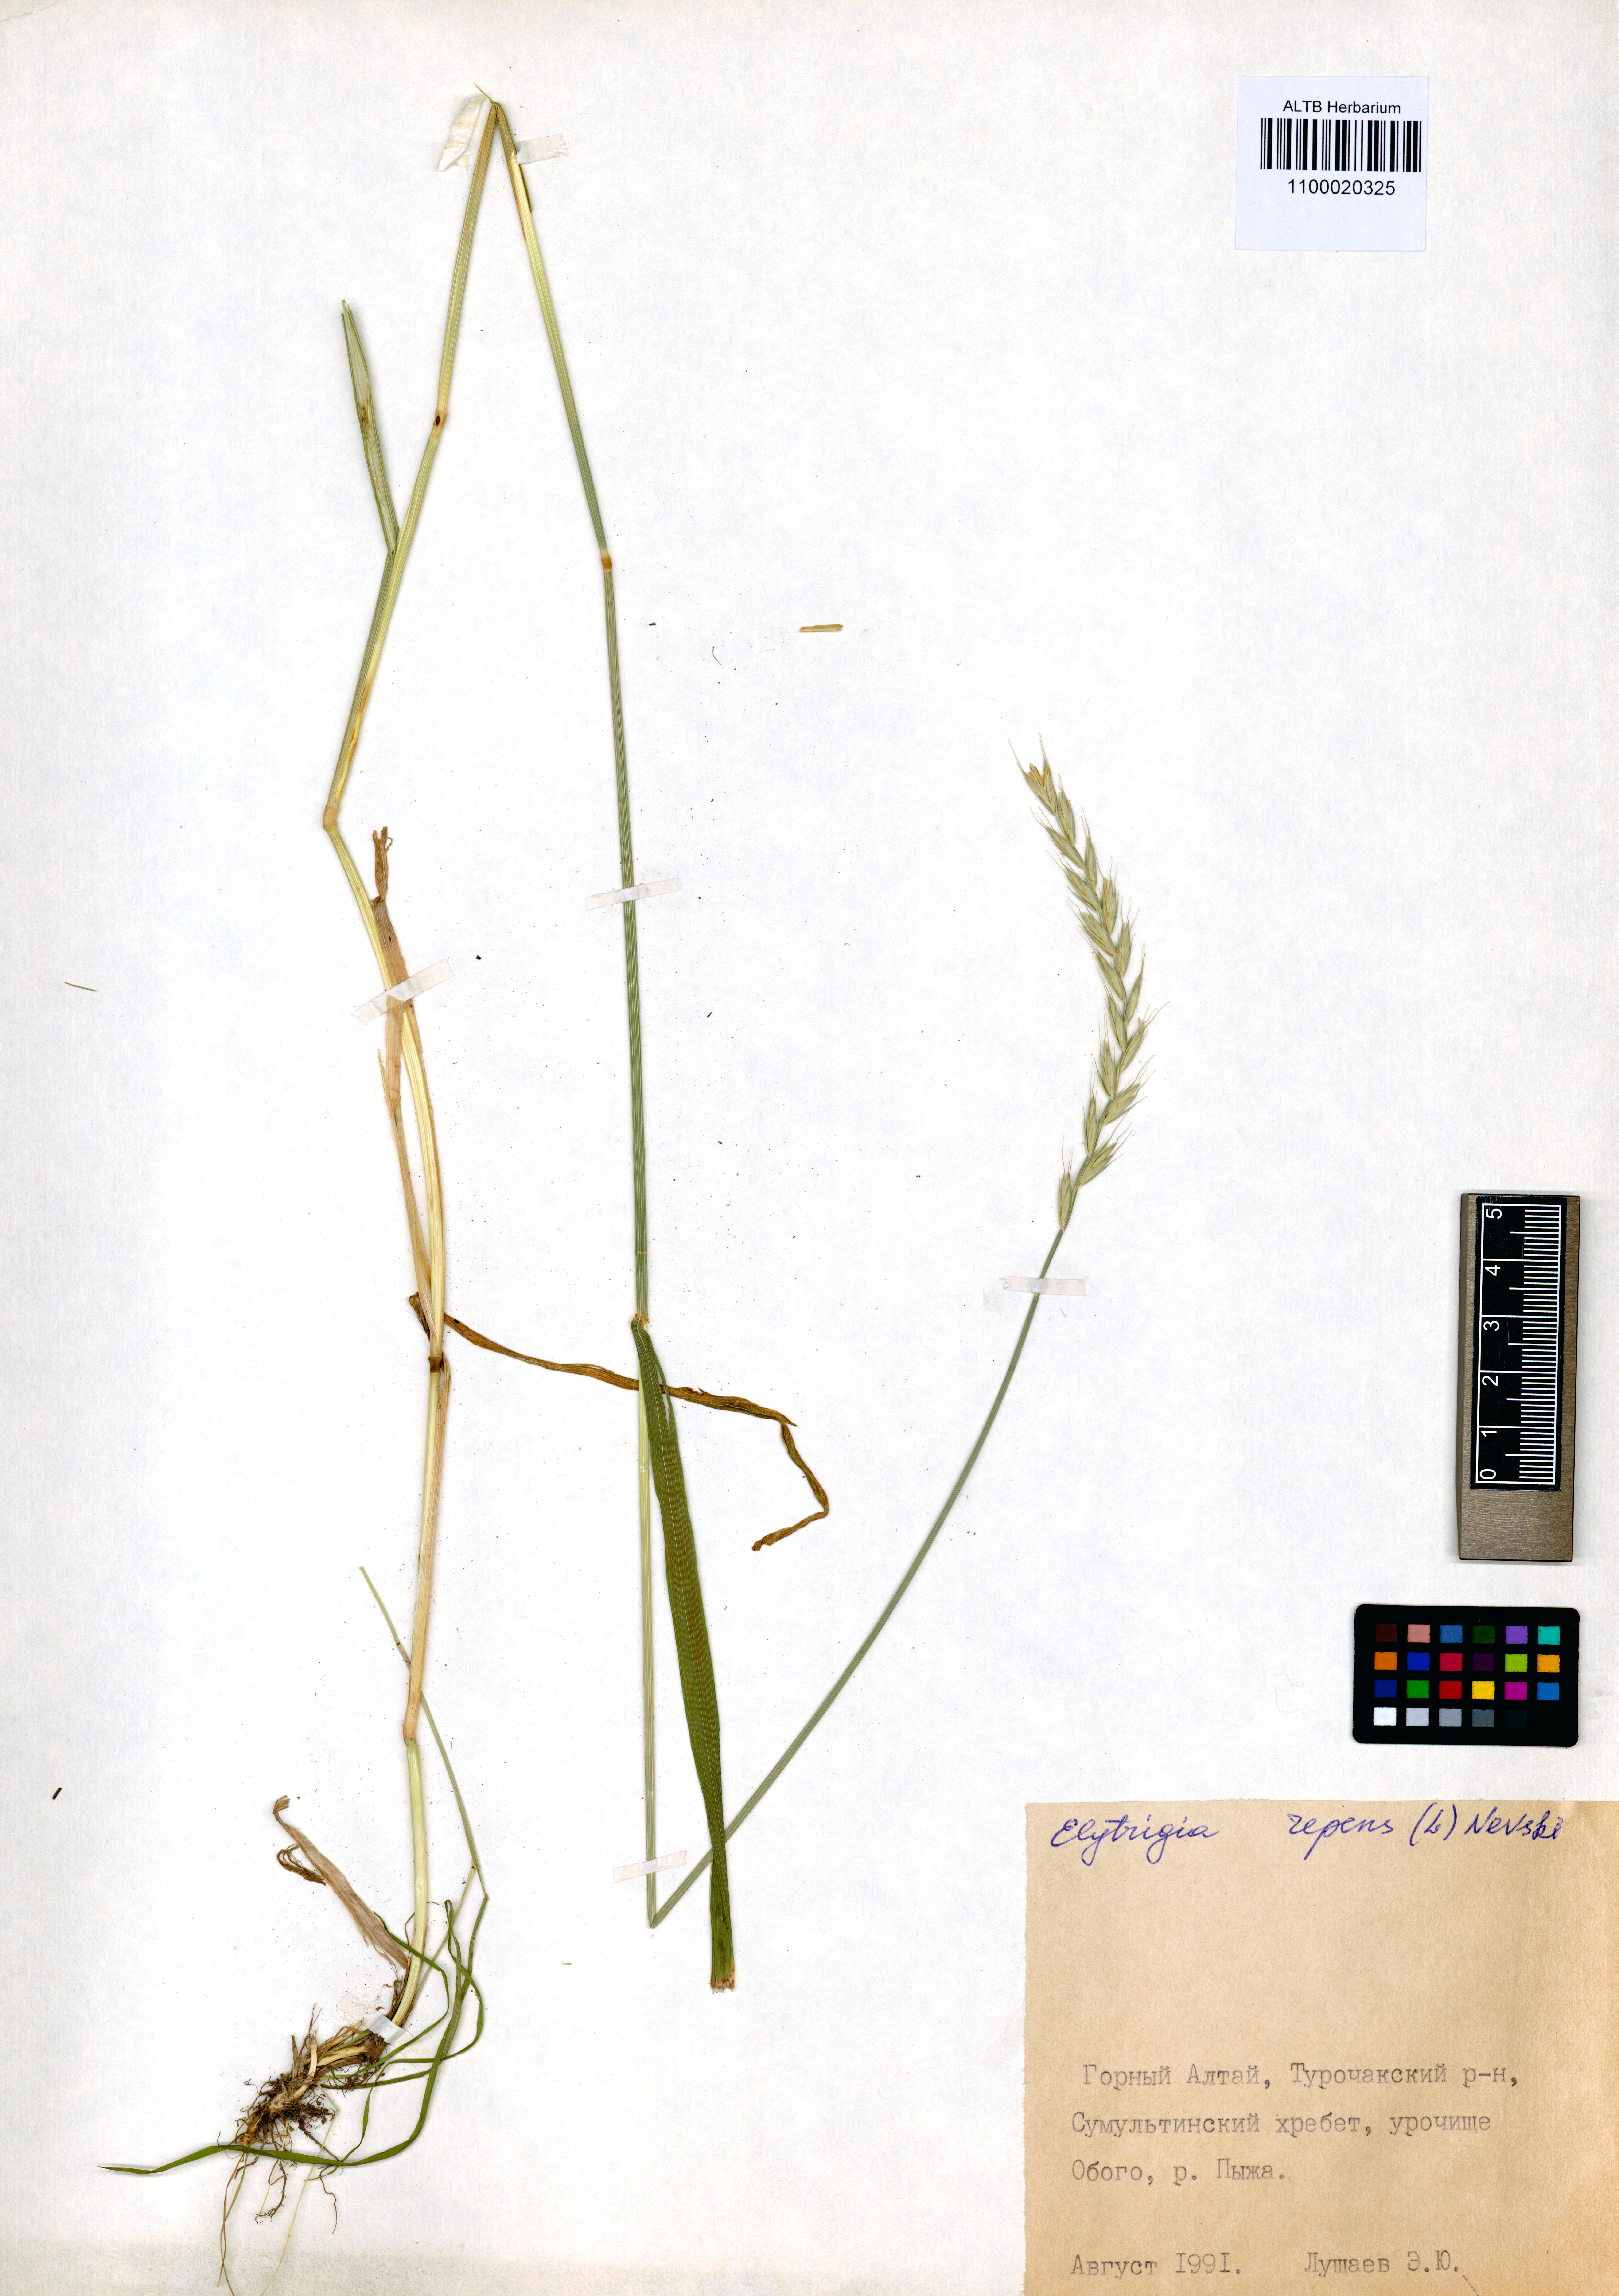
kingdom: Plantae
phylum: Tracheophyta
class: Liliopsida
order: Poales
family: Poaceae
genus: Elymus
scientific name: Elymus repens
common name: Quackgrass
